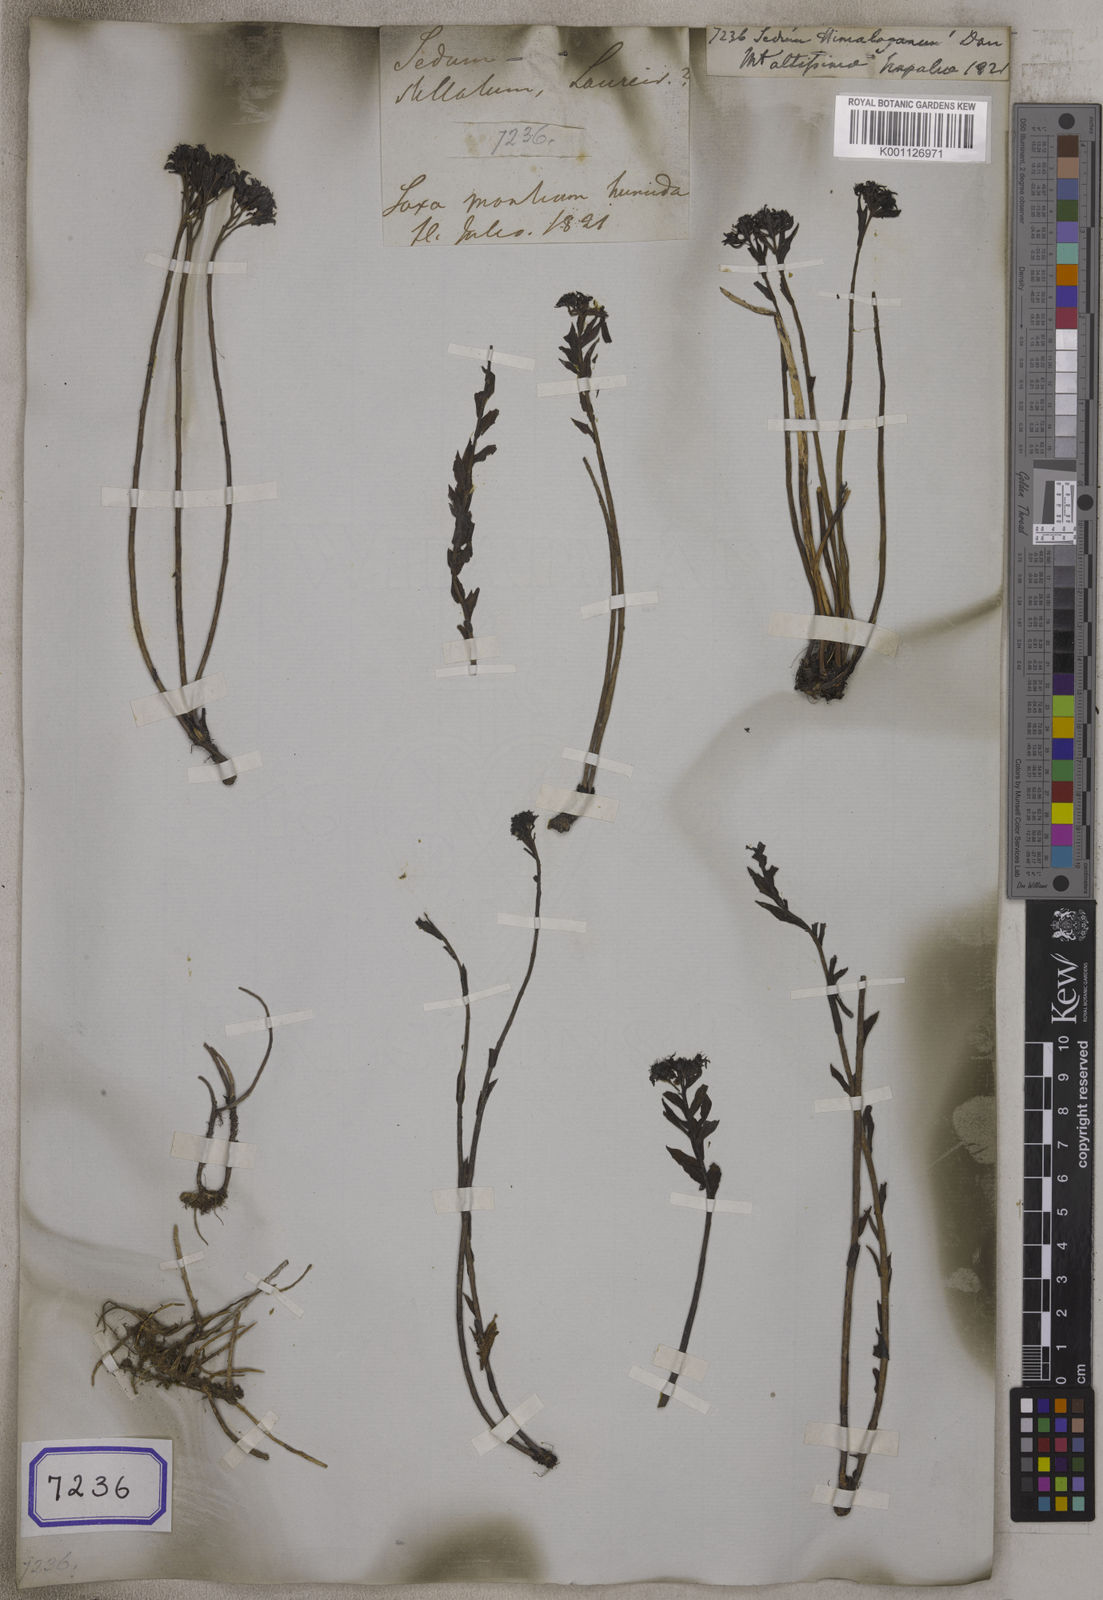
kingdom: Plantae
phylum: Tracheophyta
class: Magnoliopsida
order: Saxifragales
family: Crassulaceae
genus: Sedum
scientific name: Sedum
